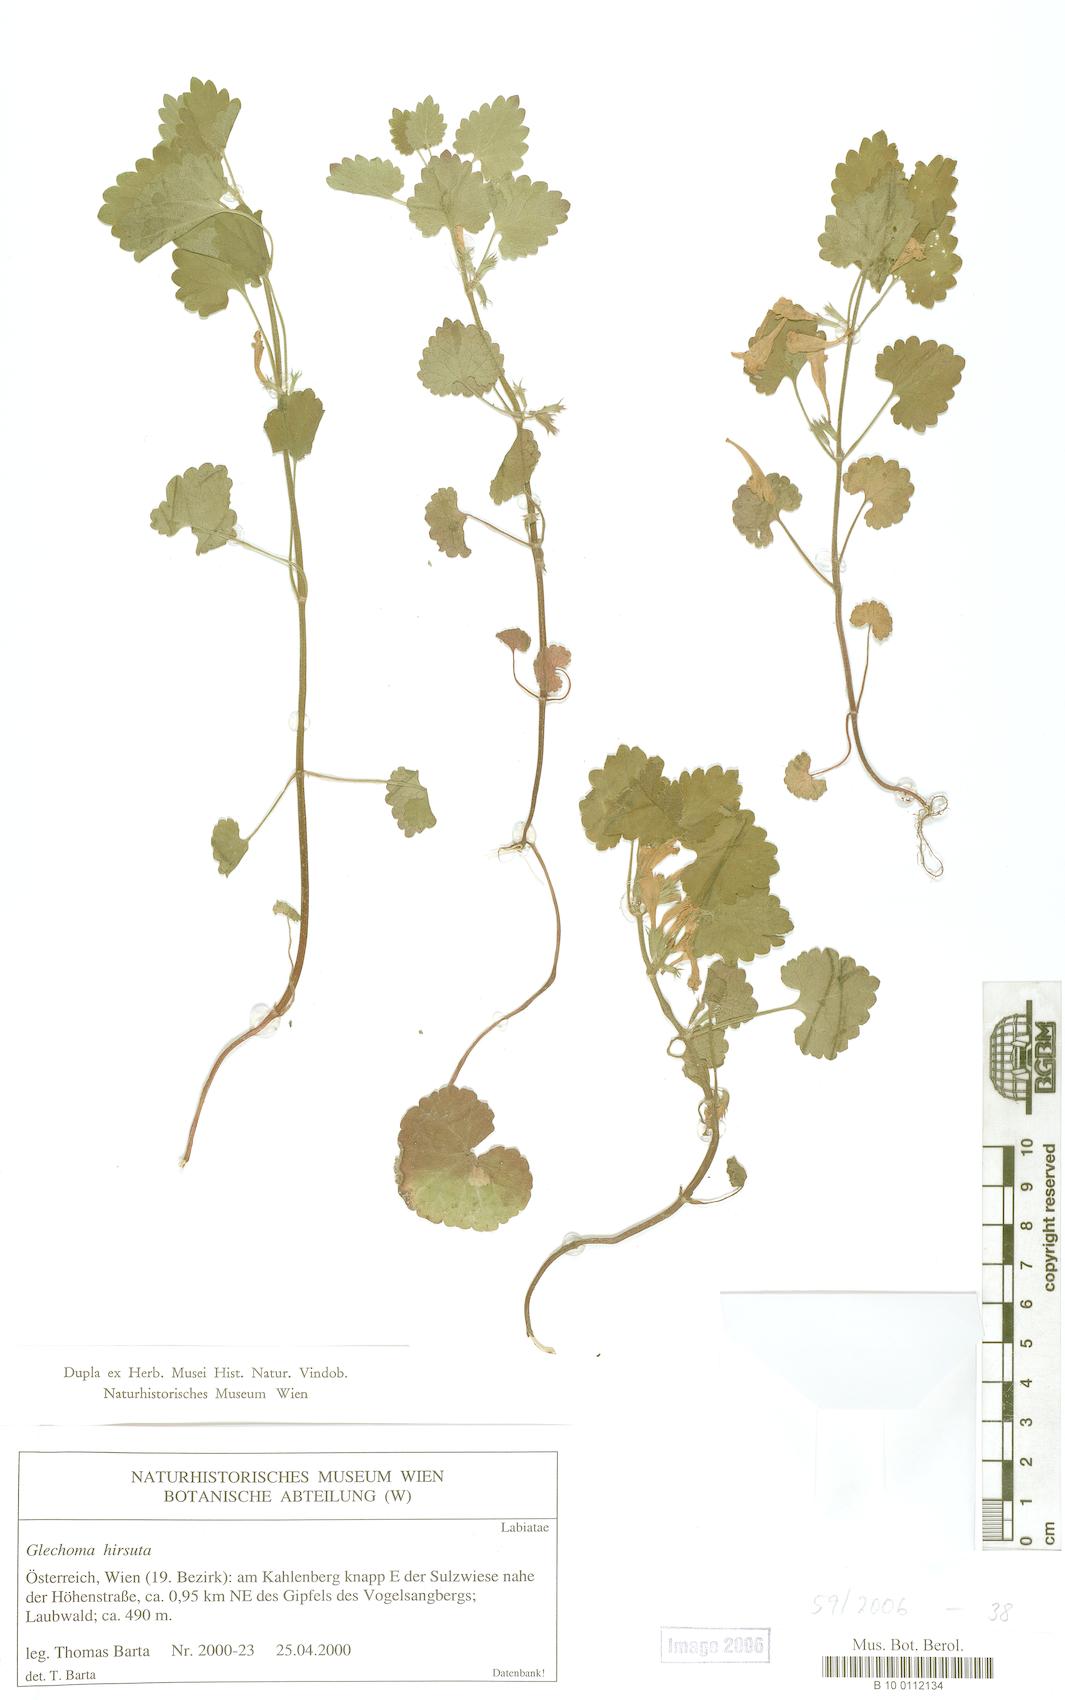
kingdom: Plantae
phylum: Tracheophyta
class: Magnoliopsida
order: Lamiales
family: Lamiaceae
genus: Glechoma
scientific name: Glechoma hirsuta
